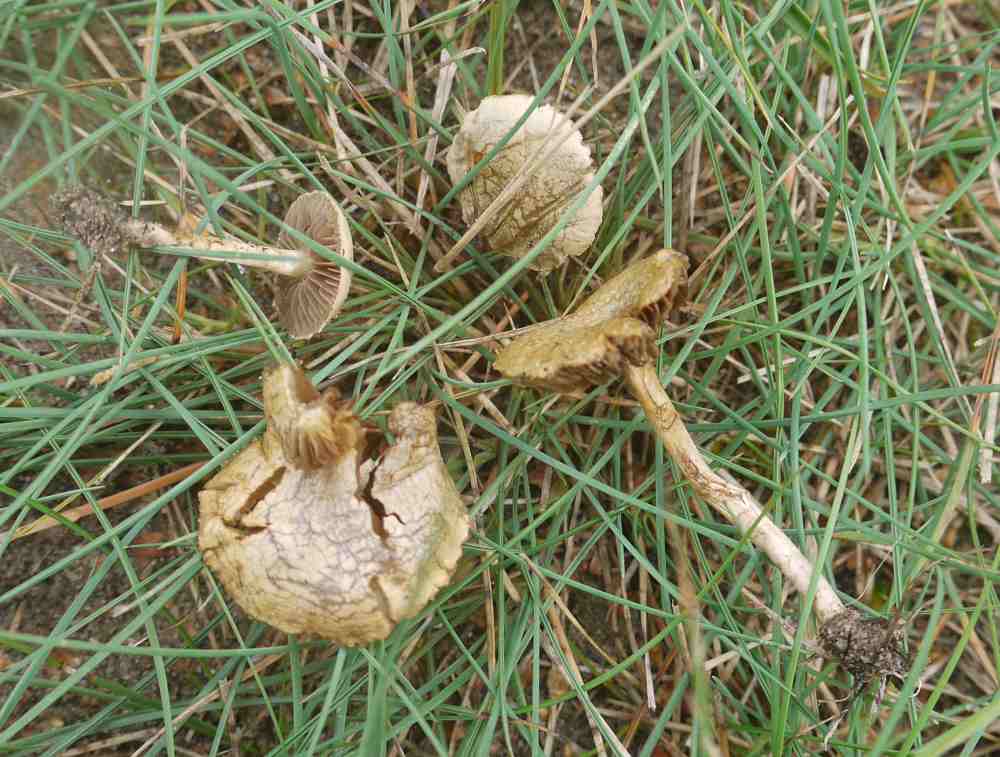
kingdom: Fungi
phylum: Basidiomycota
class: Agaricomycetes
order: Agaricales
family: Strophariaceae
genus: Agrocybe
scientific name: Agrocybe pediades
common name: almindelig agerhat
